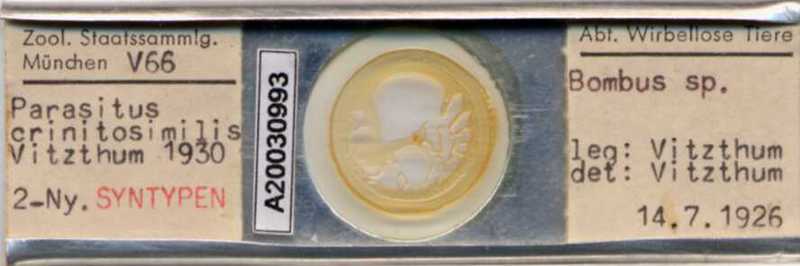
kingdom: Animalia
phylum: Arthropoda
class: Arachnida
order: Mesostigmata
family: Parasitidae
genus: Parasitellus
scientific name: Parasitellus crinitus
